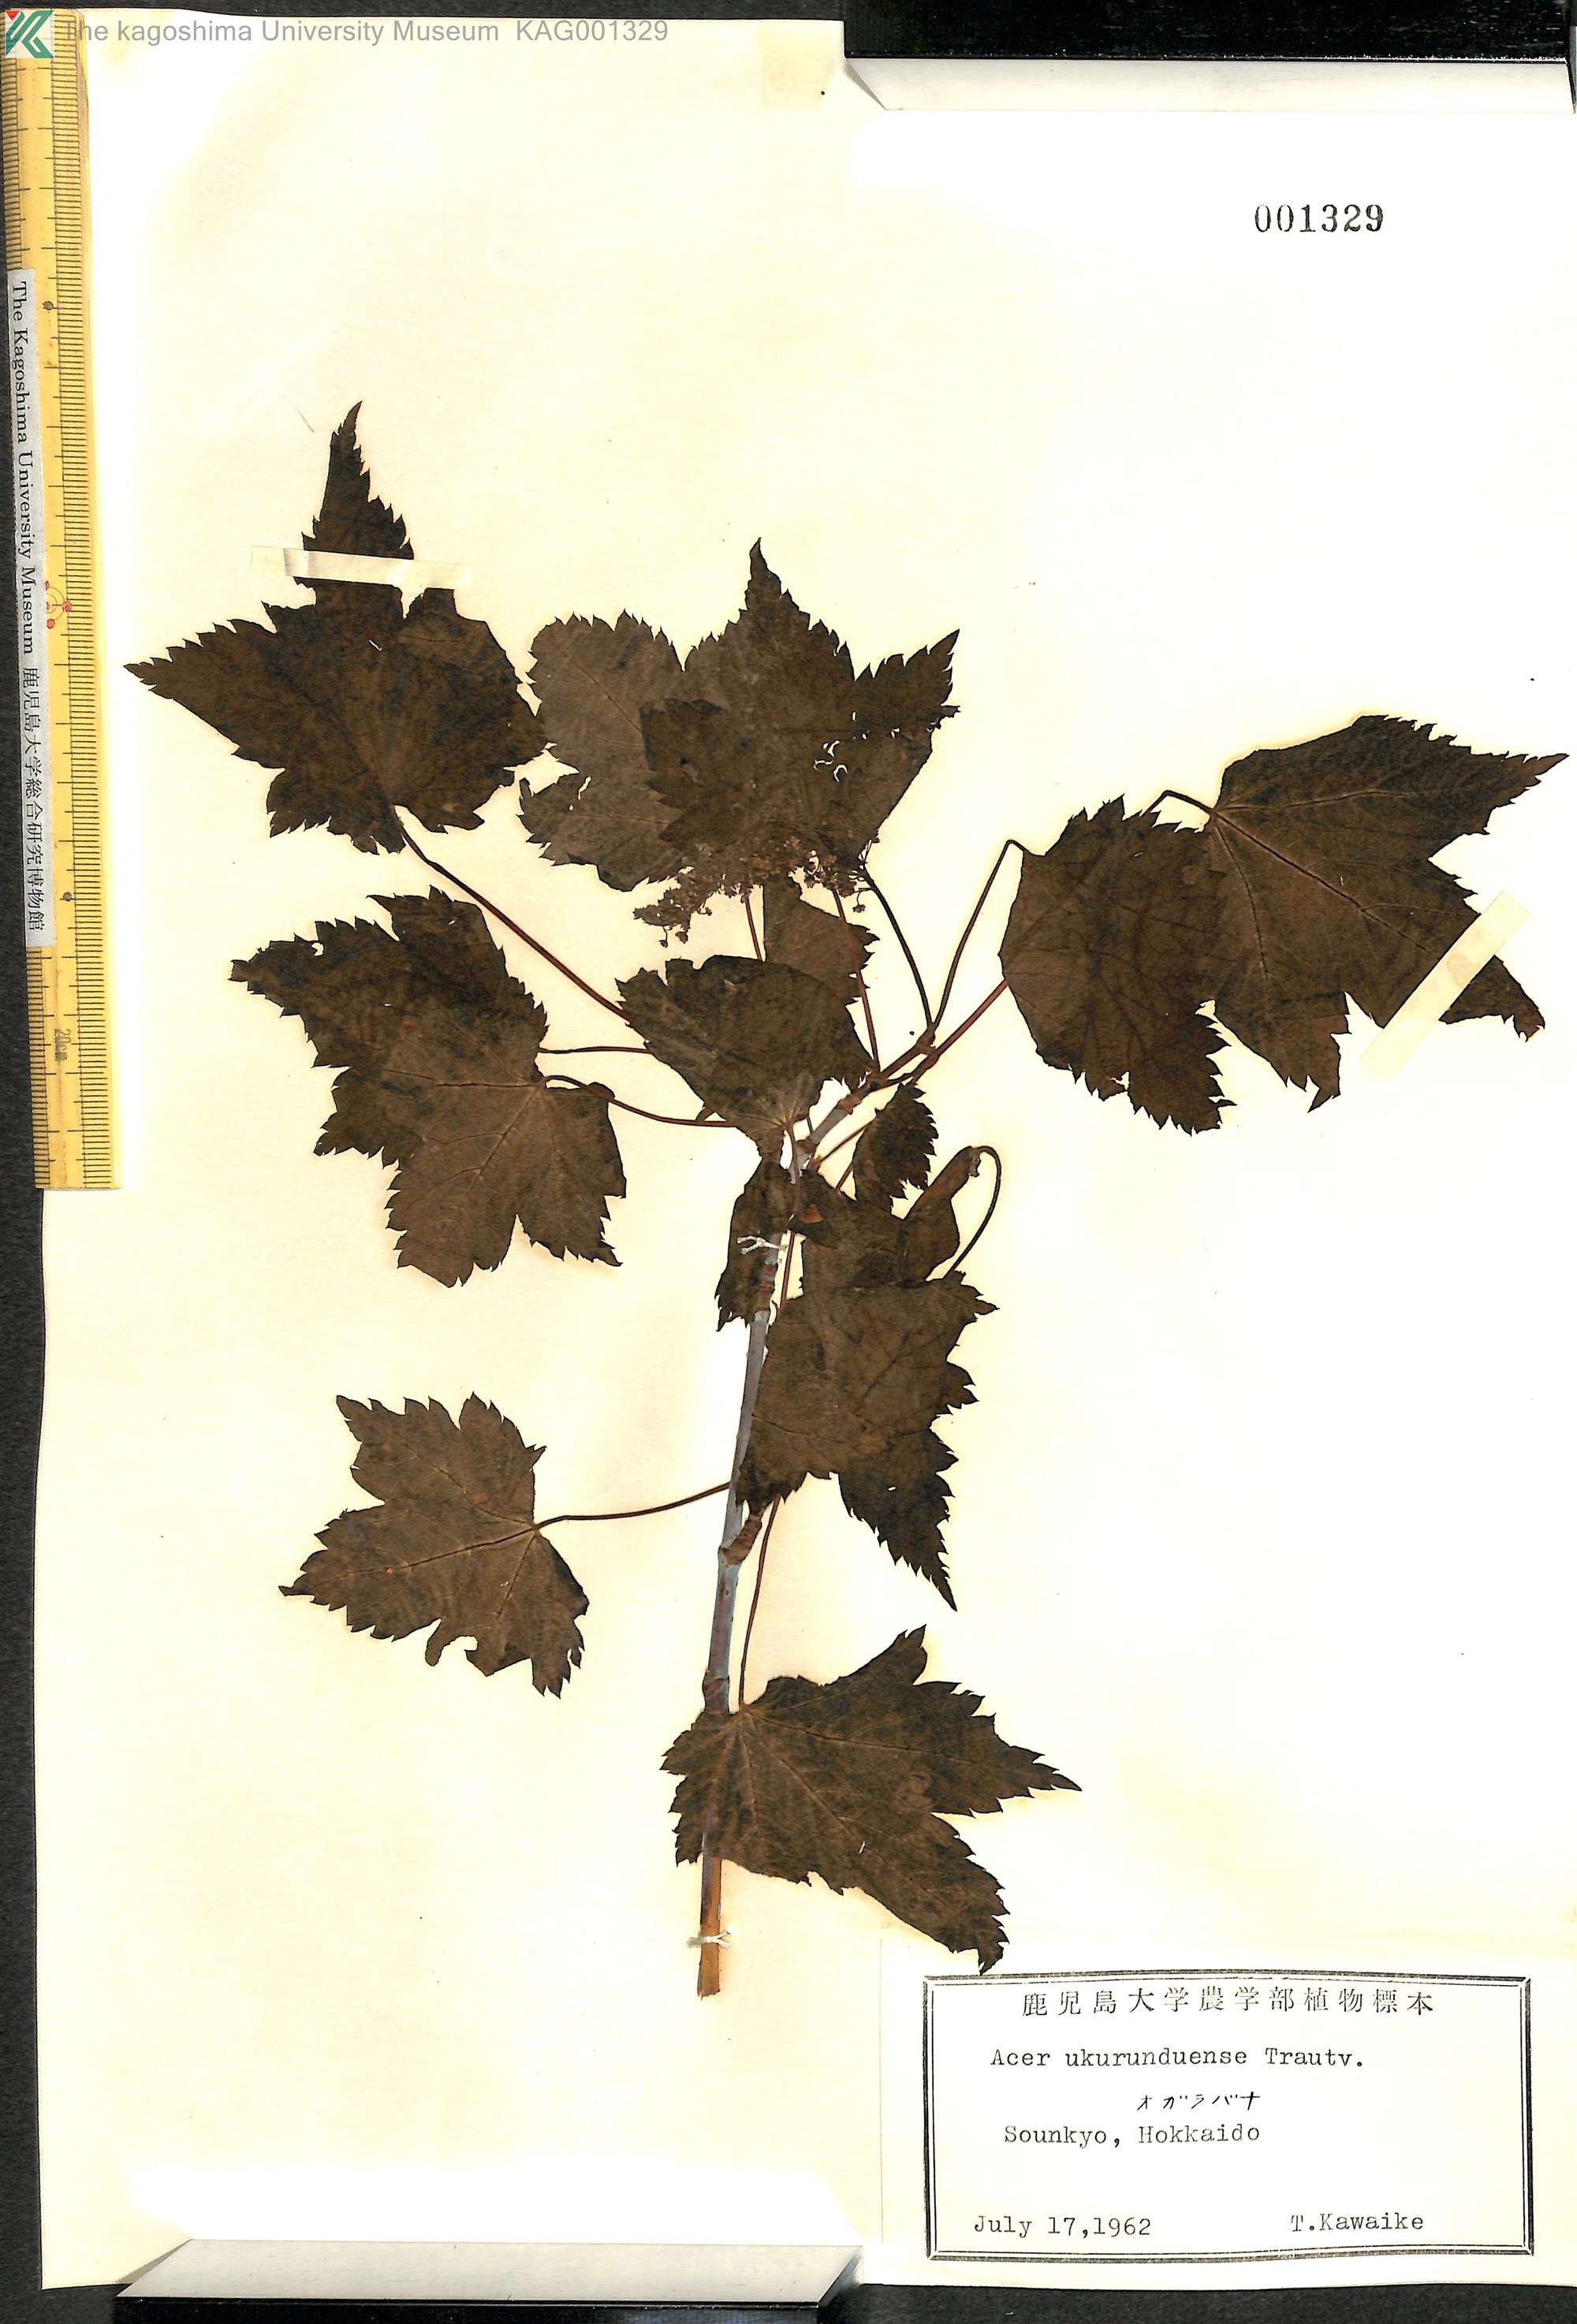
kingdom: Plantae
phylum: Tracheophyta
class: Magnoliopsida
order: Sapindales
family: Sapindaceae
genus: Acer
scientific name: Acer ukurunduense
